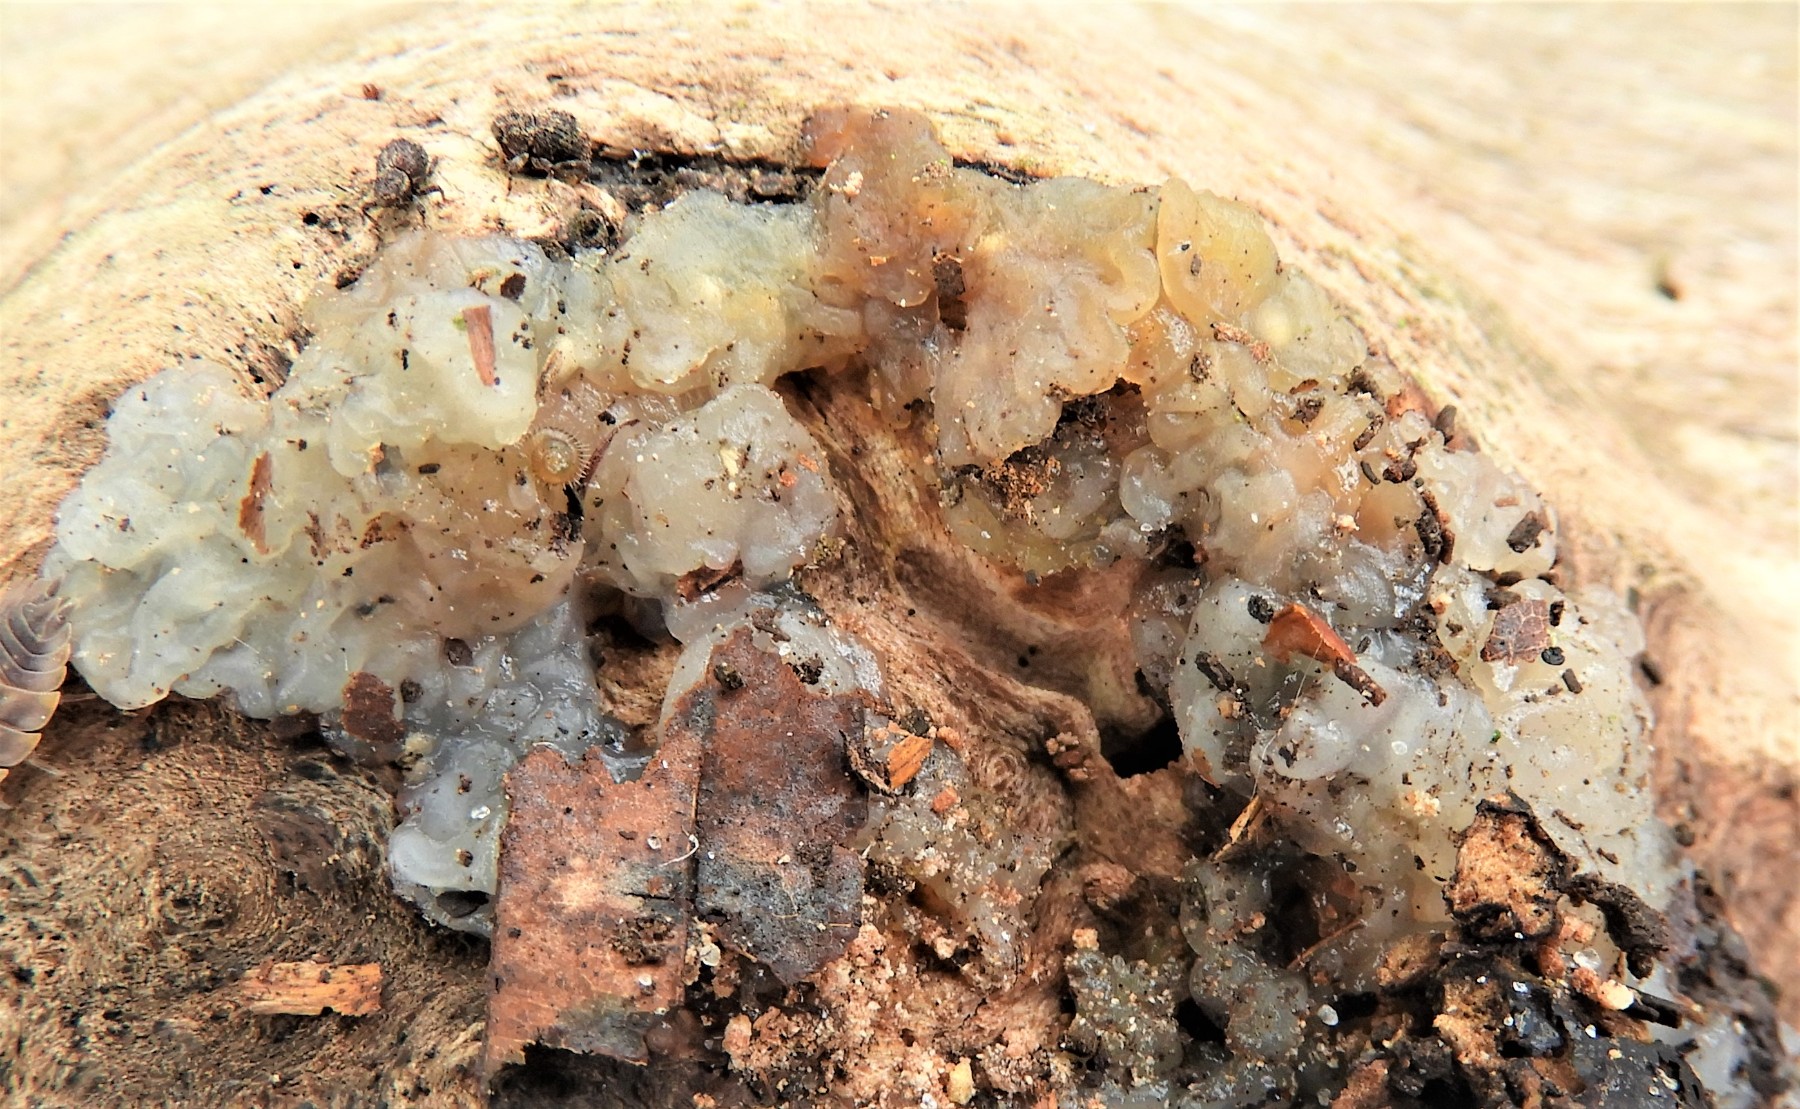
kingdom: Fungi
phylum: Basidiomycota
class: Agaricomycetes
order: Auriculariales
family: Hyaloriaceae
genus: Myxarium
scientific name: Myxarium nucleatum
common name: klar bævretop
